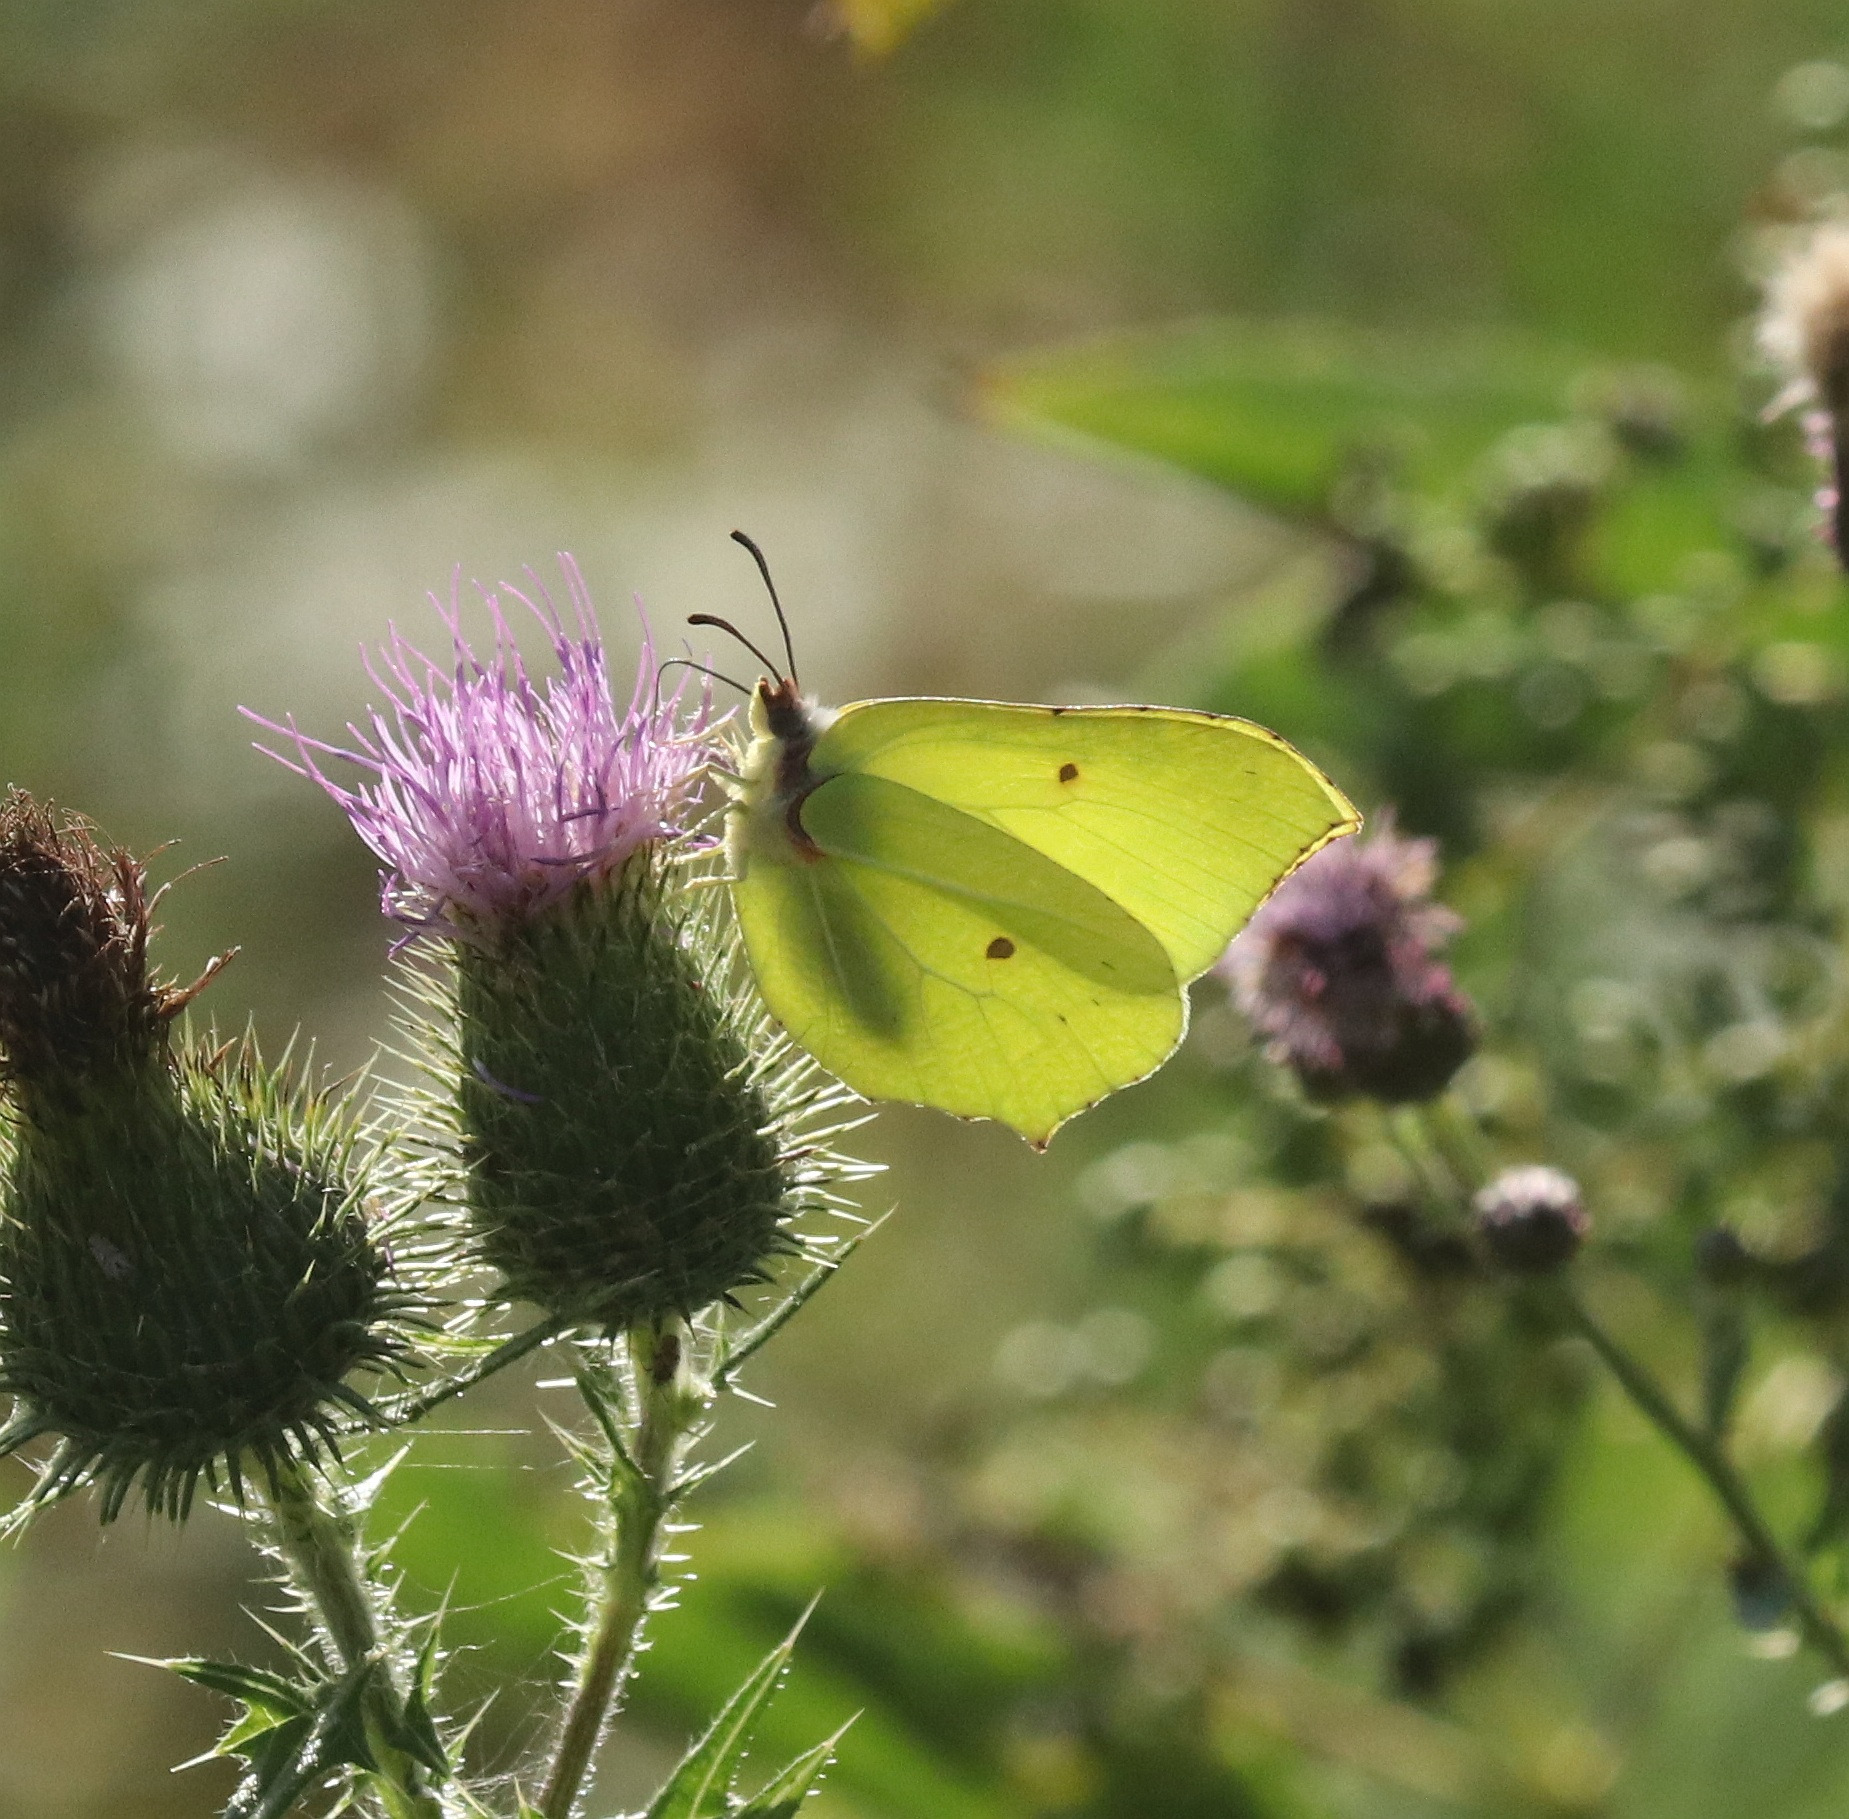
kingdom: Animalia
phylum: Arthropoda
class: Insecta
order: Lepidoptera
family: Pieridae
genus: Gonepteryx
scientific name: Gonepteryx rhamni
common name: Citronsommerfugl
